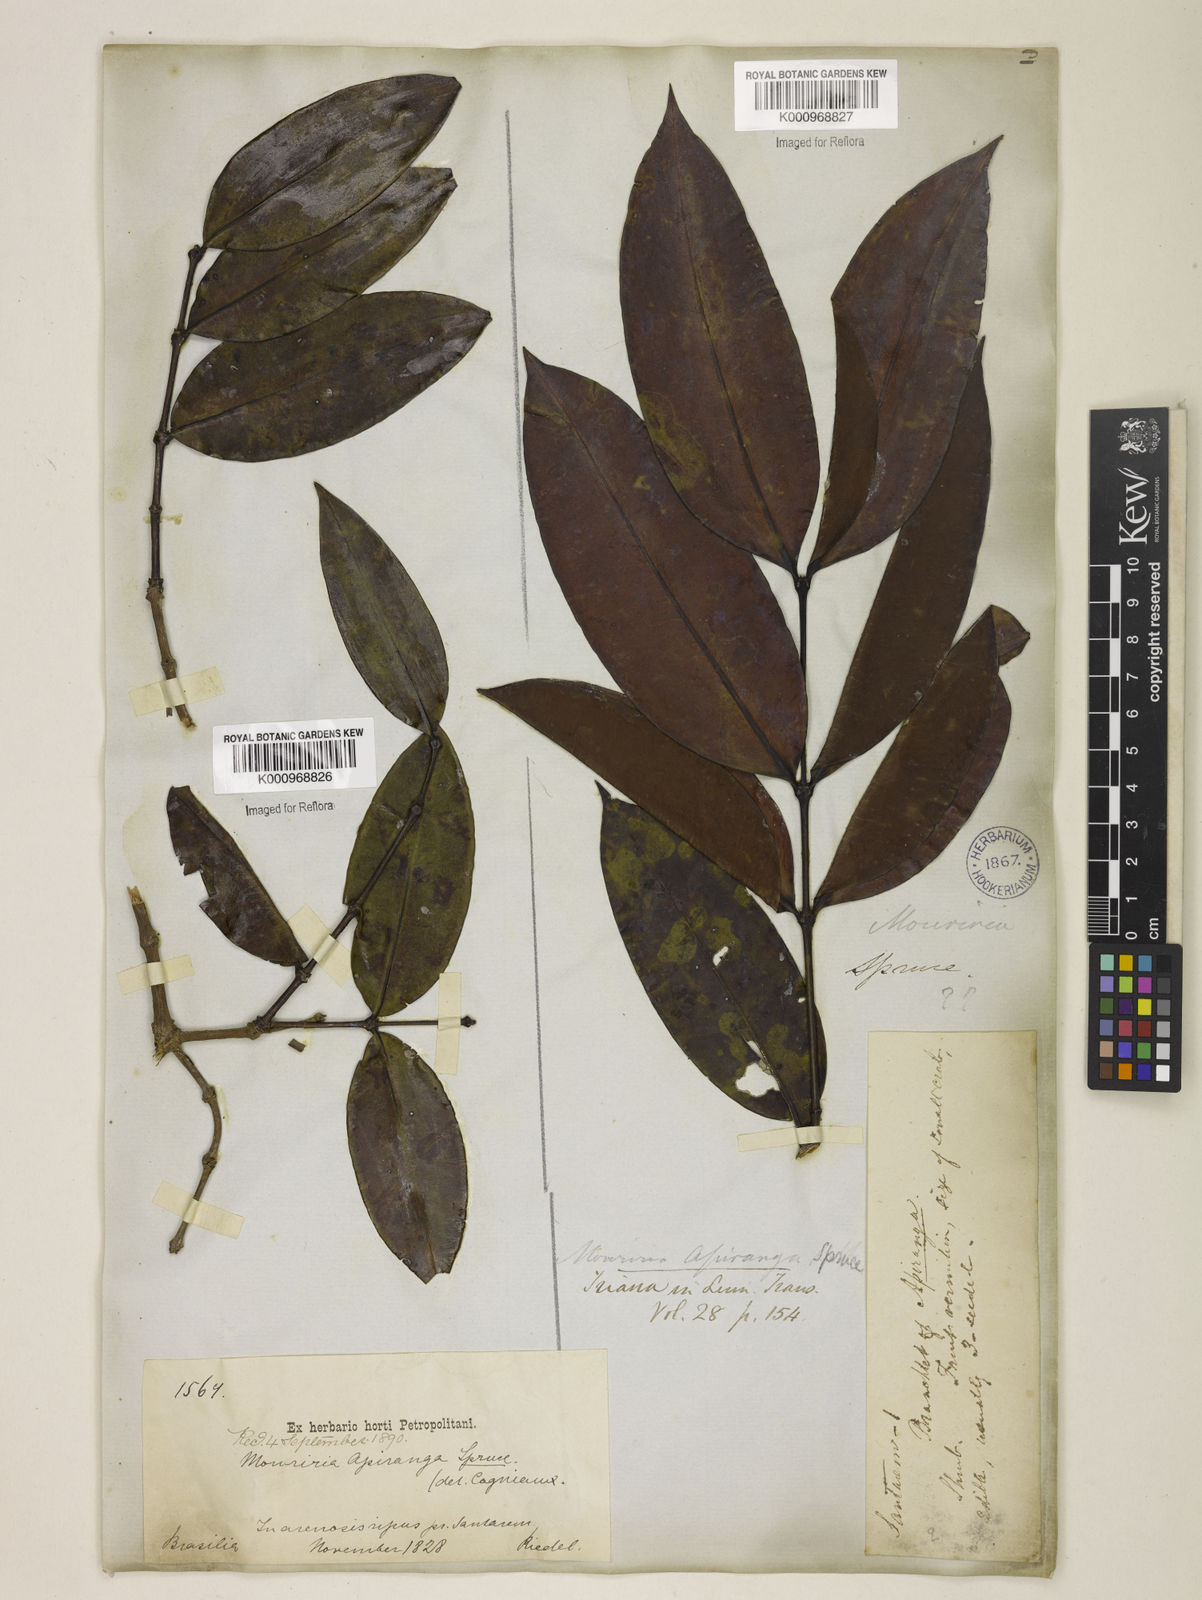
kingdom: Plantae
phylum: Tracheophyta
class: Magnoliopsida
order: Myrtales
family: Melastomataceae
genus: Mouriri
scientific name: Mouriri apiranga
